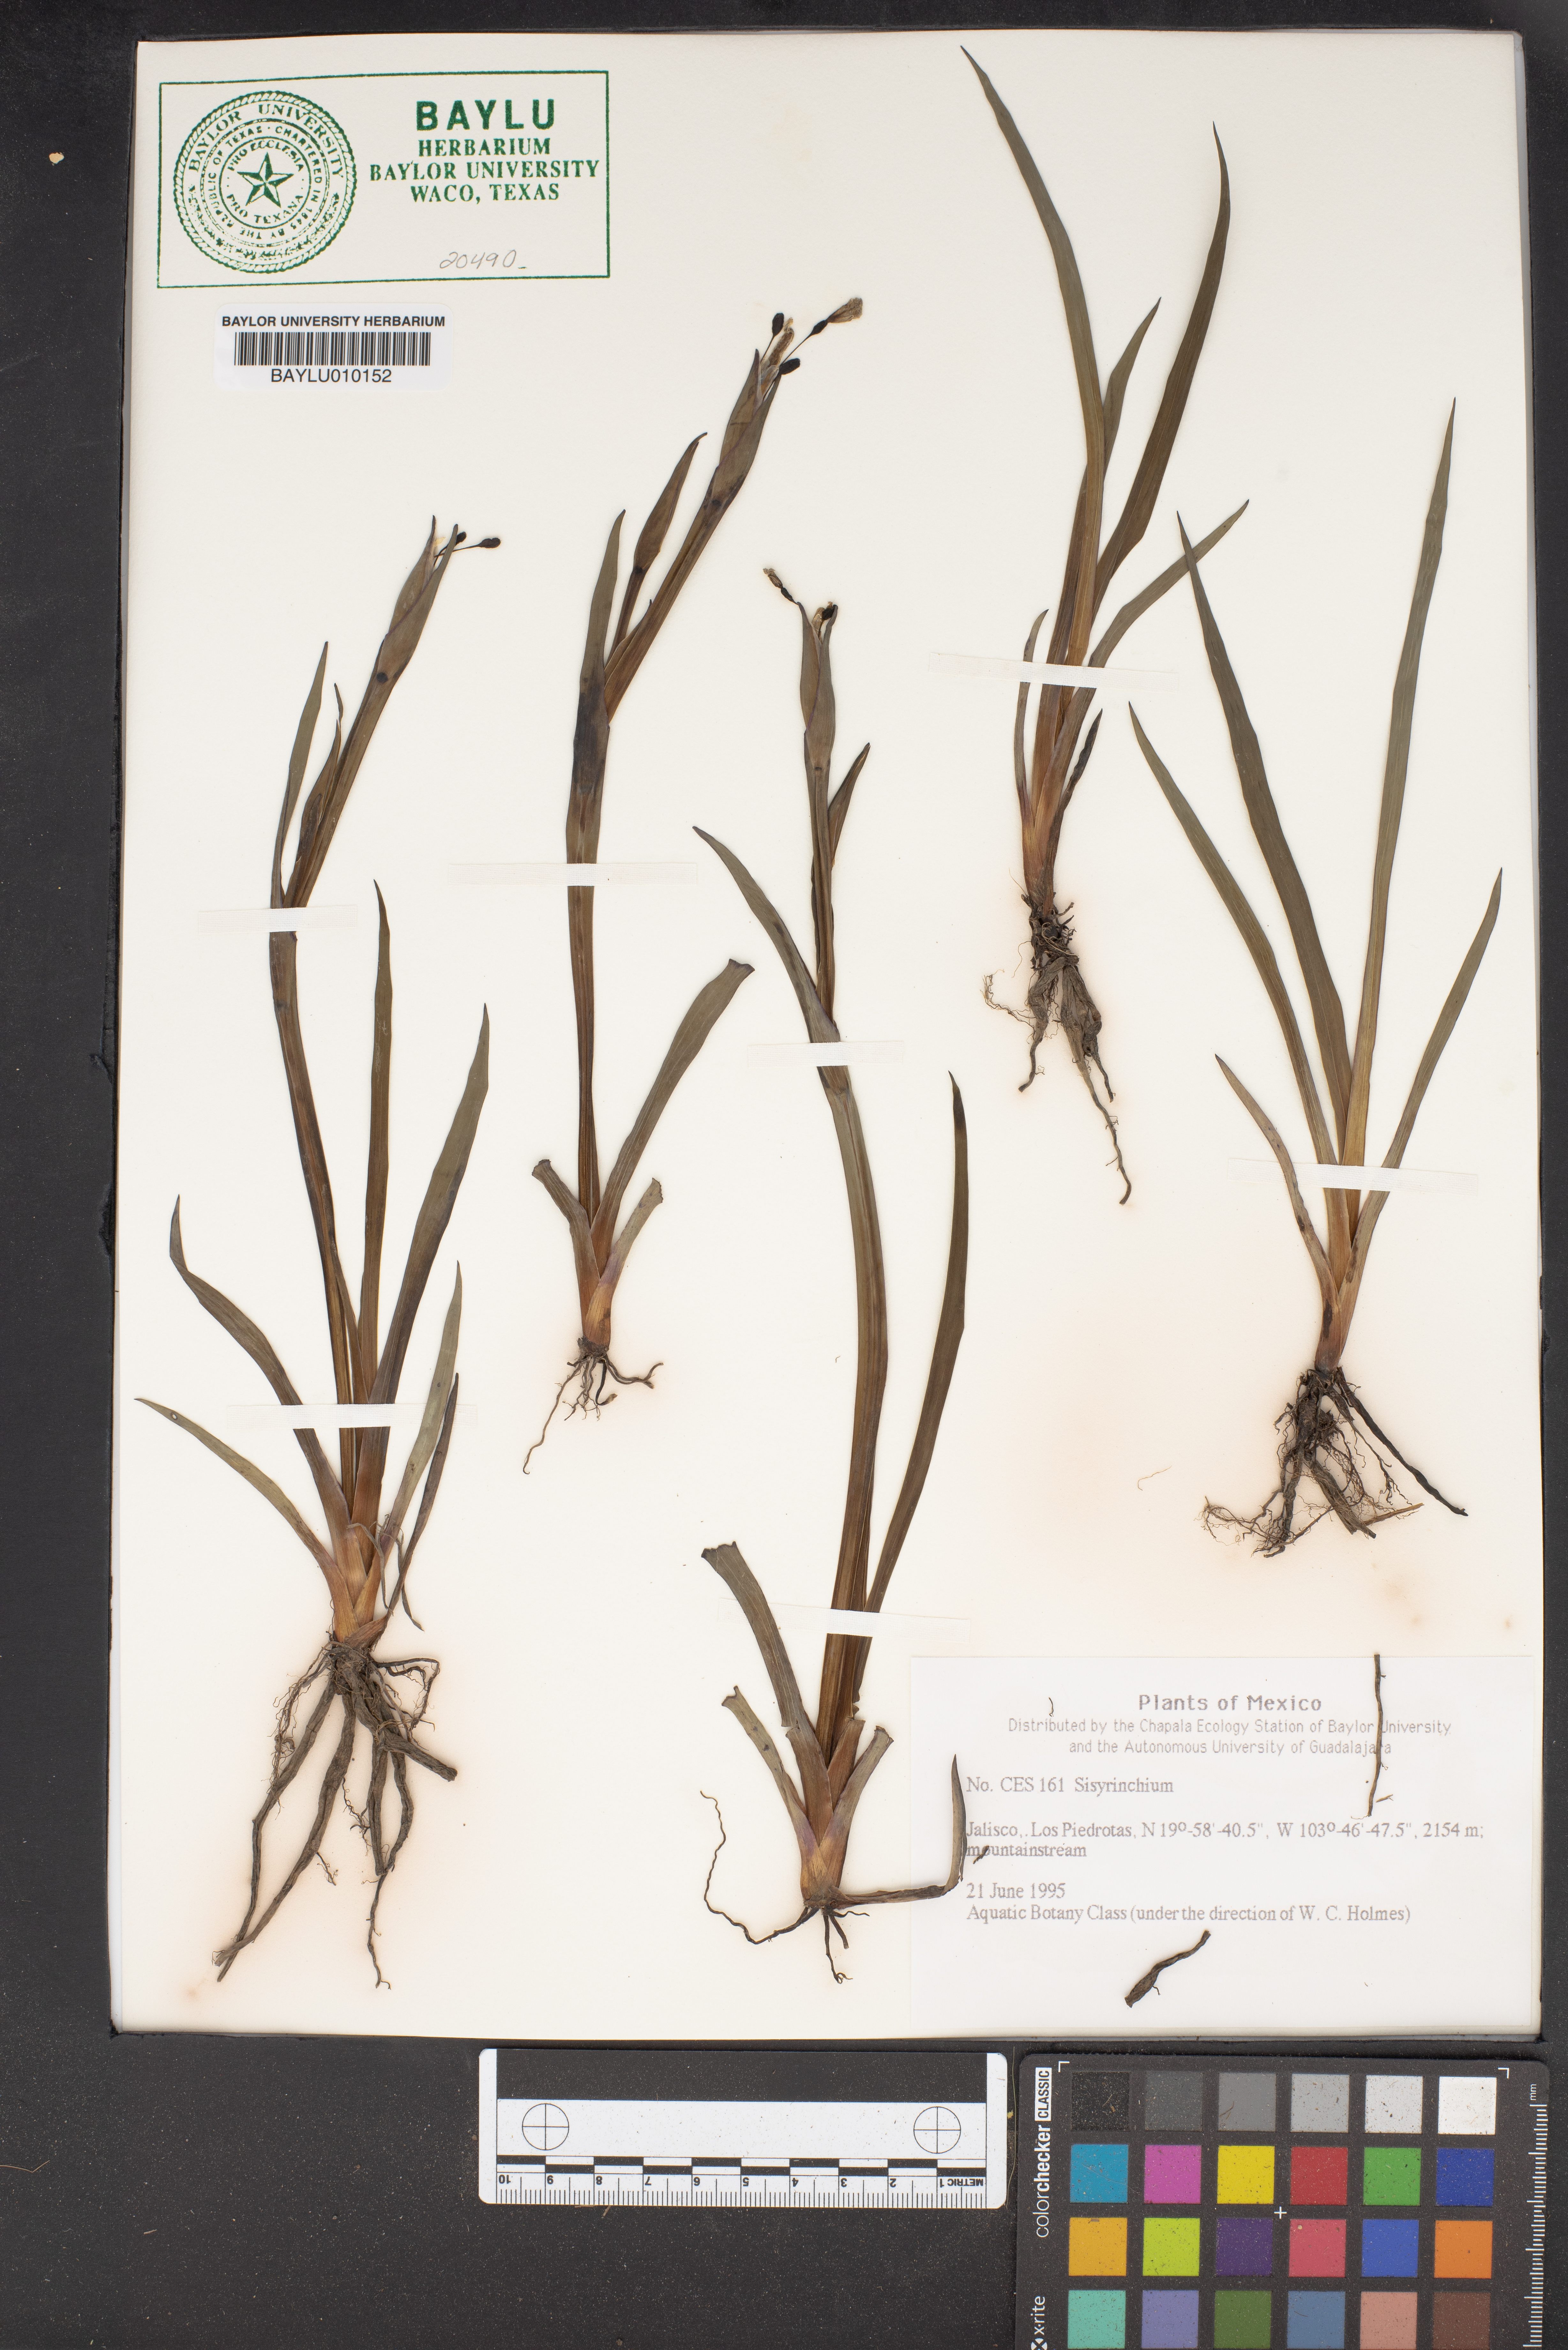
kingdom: Plantae
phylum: Tracheophyta
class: Liliopsida
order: Asparagales
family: Iridaceae
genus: Sisyrinchium
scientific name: Sisyrinchium
